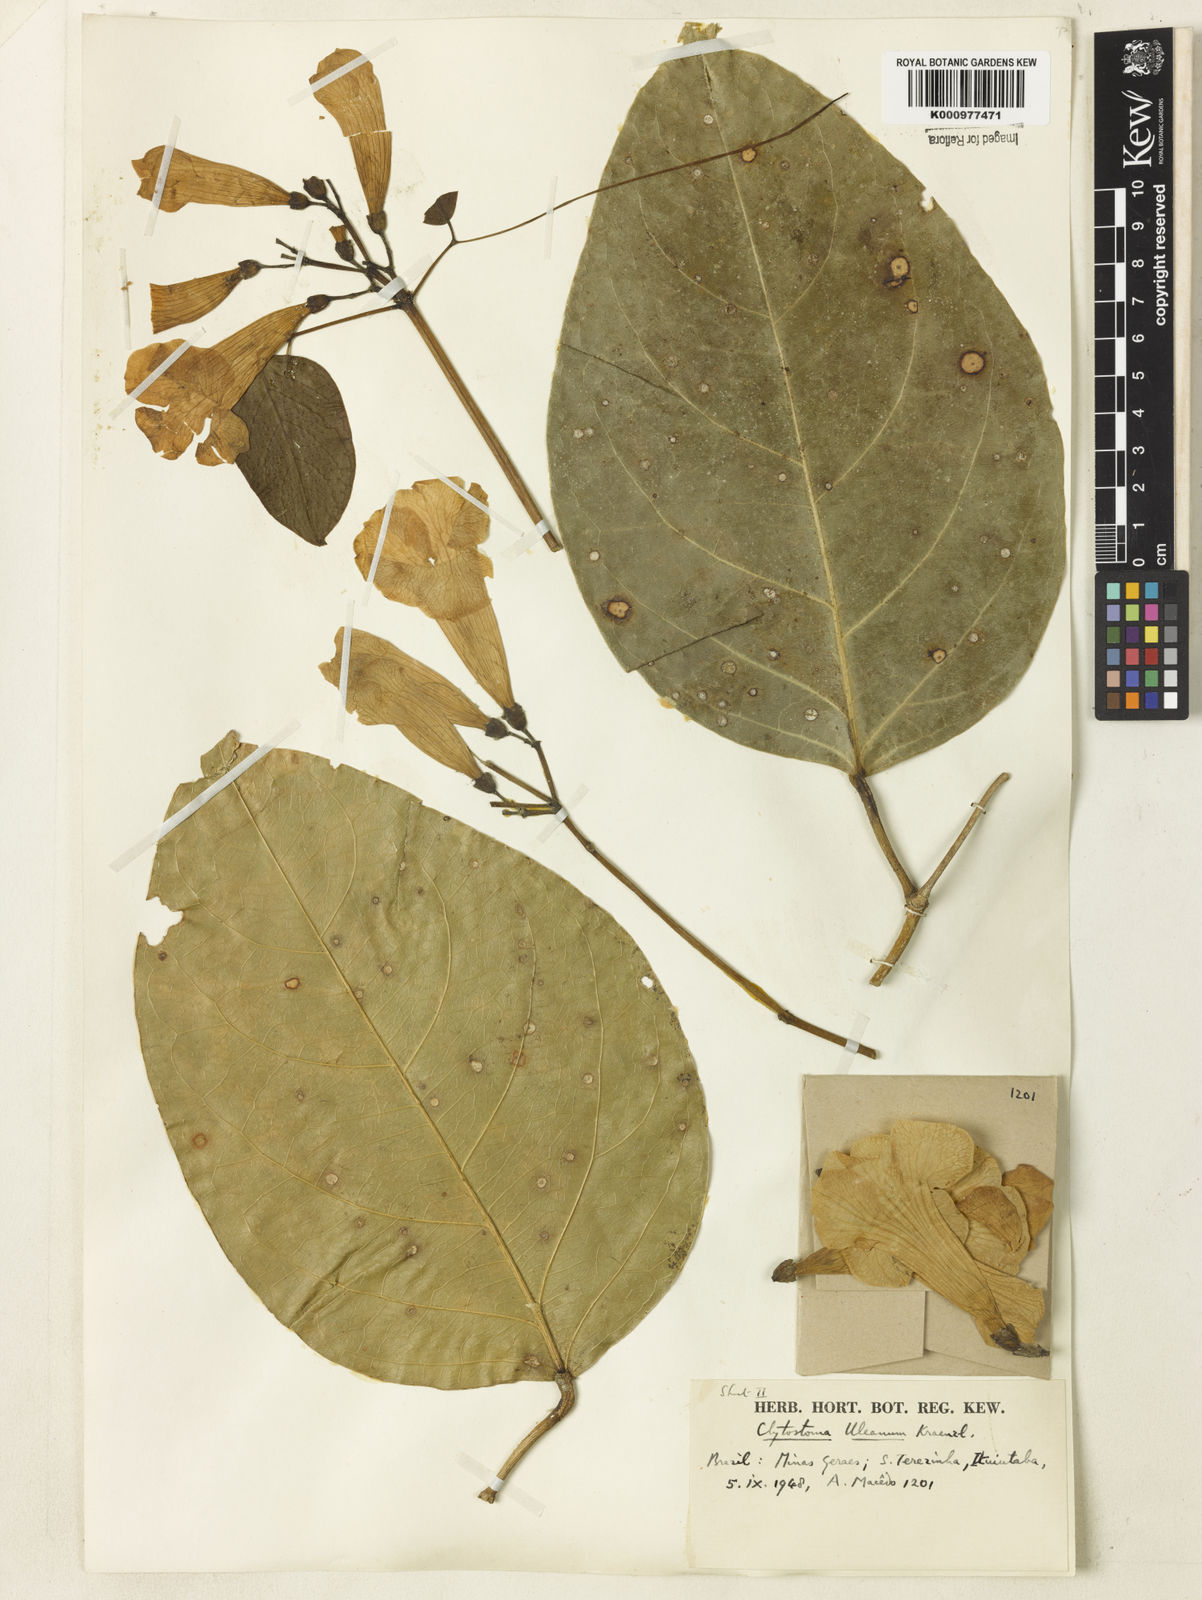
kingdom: Plantae
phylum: Tracheophyta
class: Magnoliopsida
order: Lamiales
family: Bignoniaceae
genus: Bignonia
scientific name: Bignonia uleana
